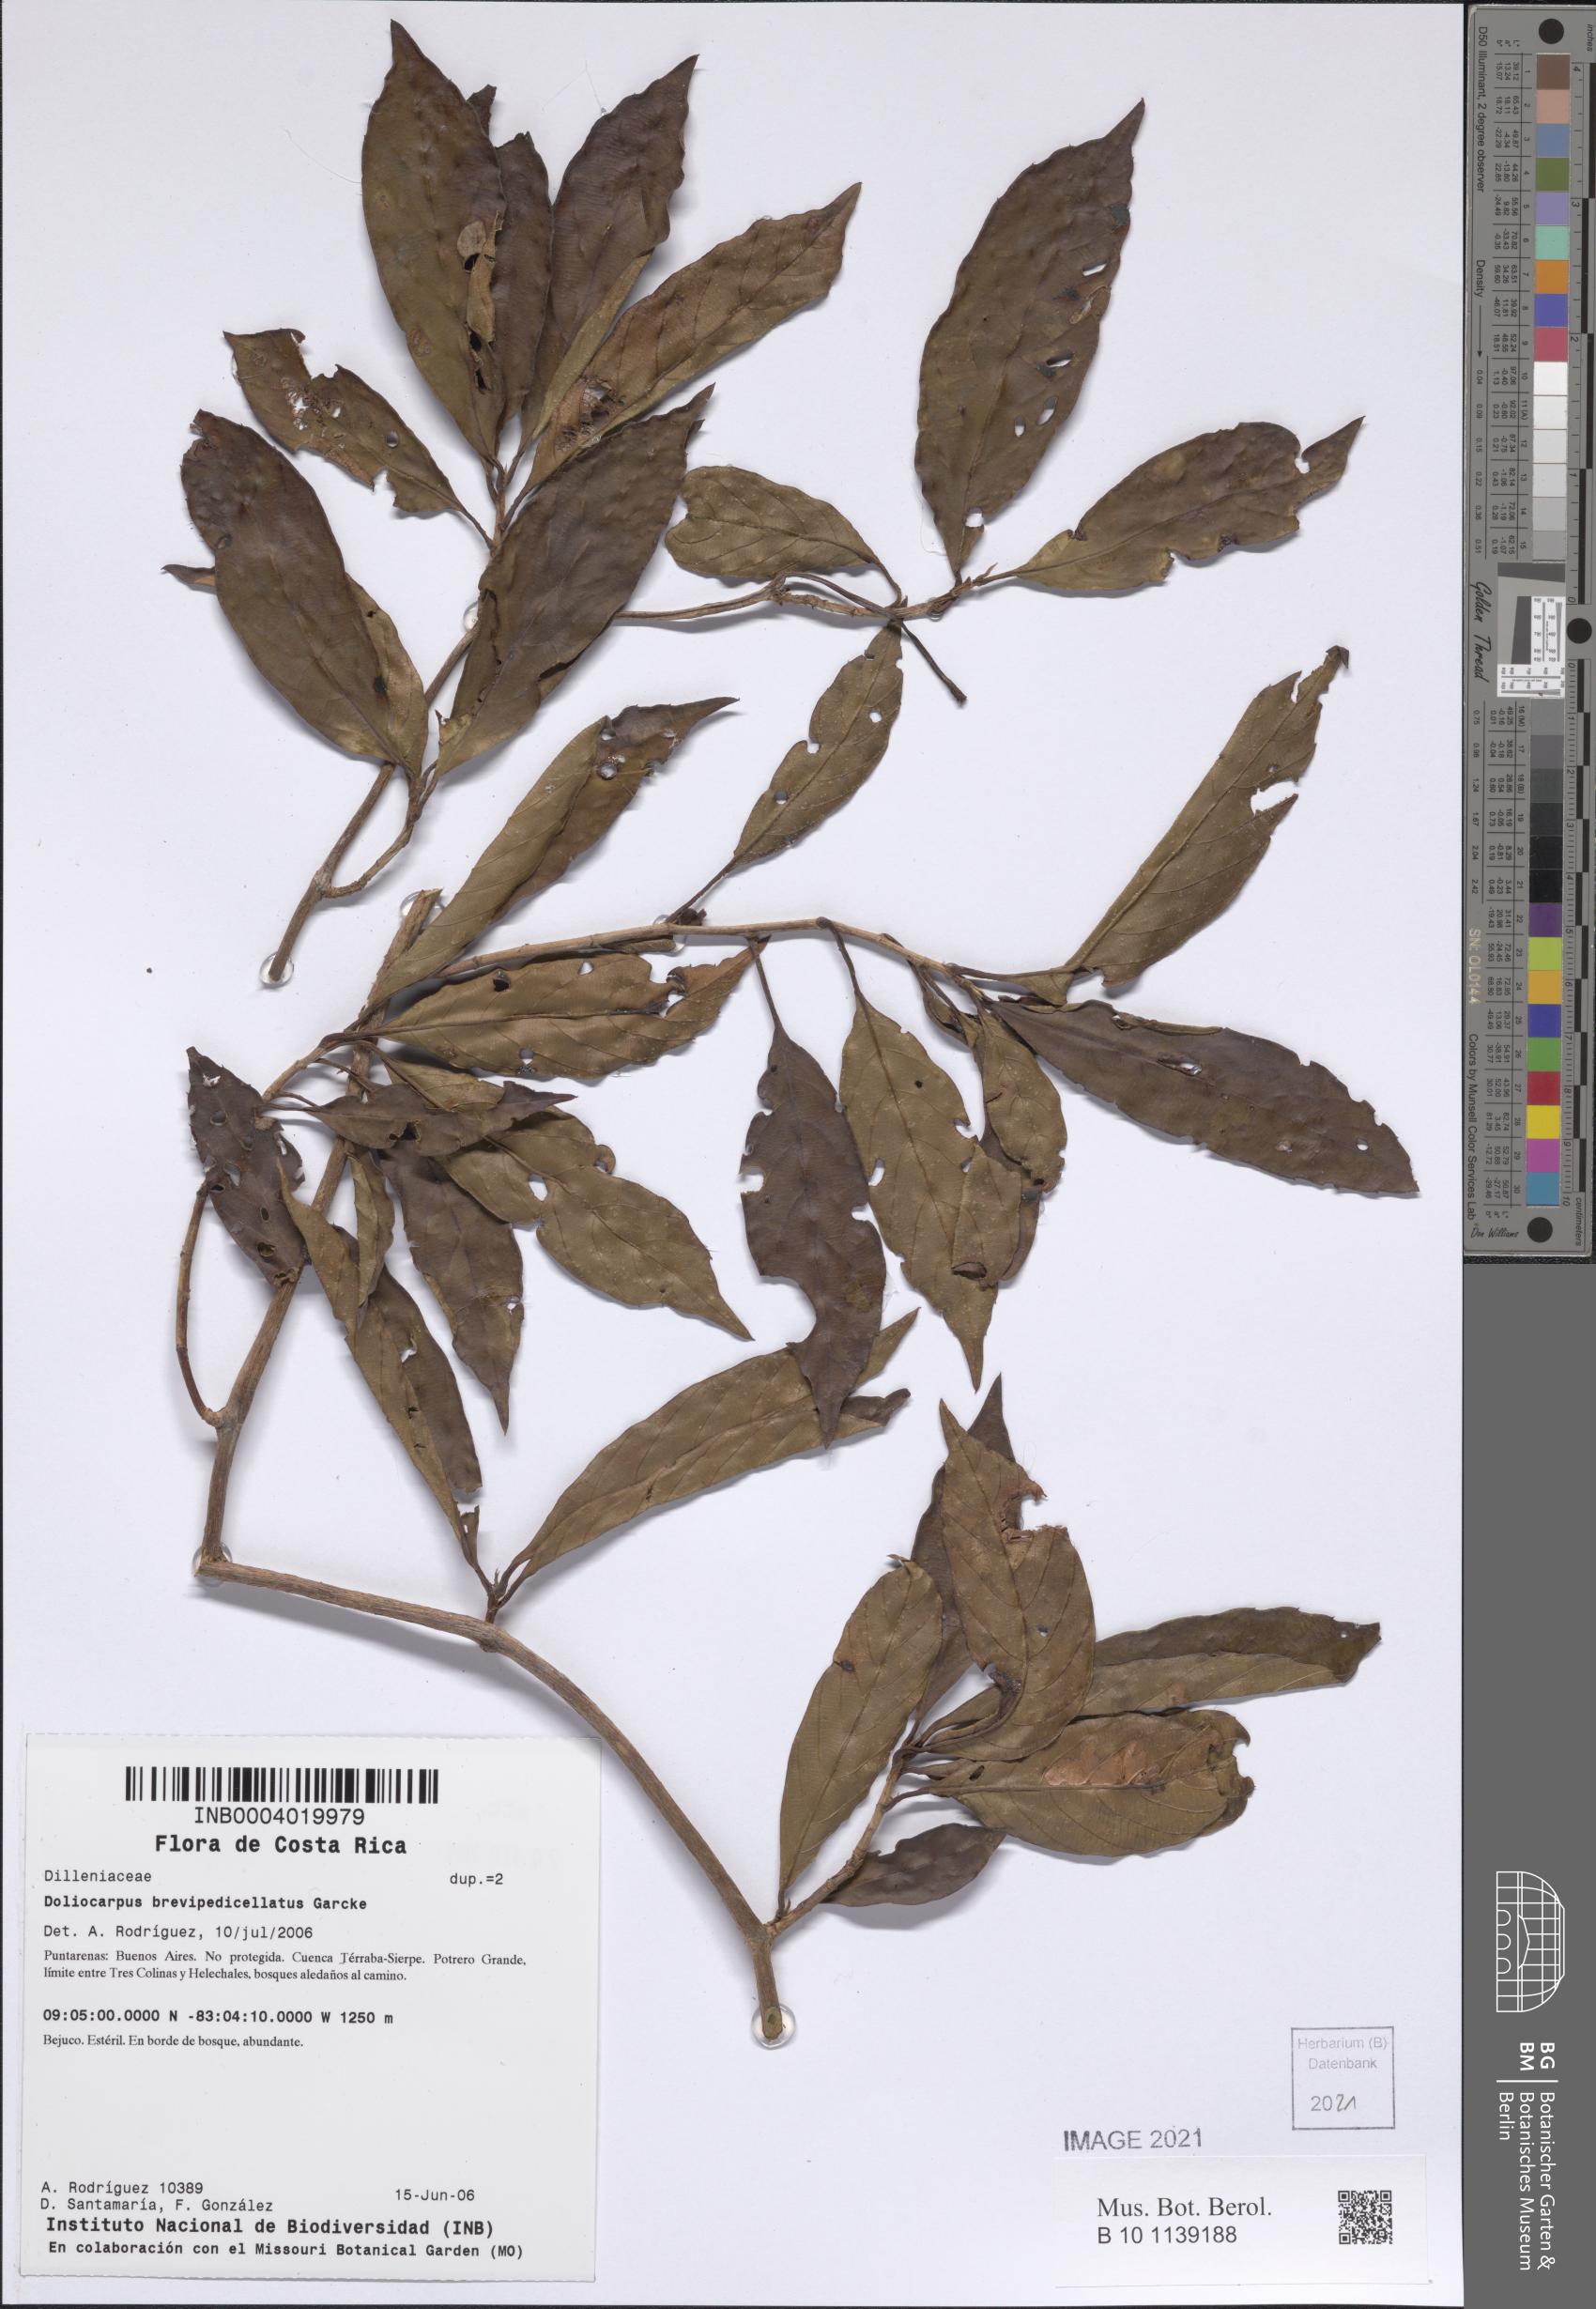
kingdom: Plantae
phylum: Tracheophyta
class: Magnoliopsida
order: Dilleniales
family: Dilleniaceae
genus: Doliocarpus
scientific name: Doliocarpus brevipedicellatus
